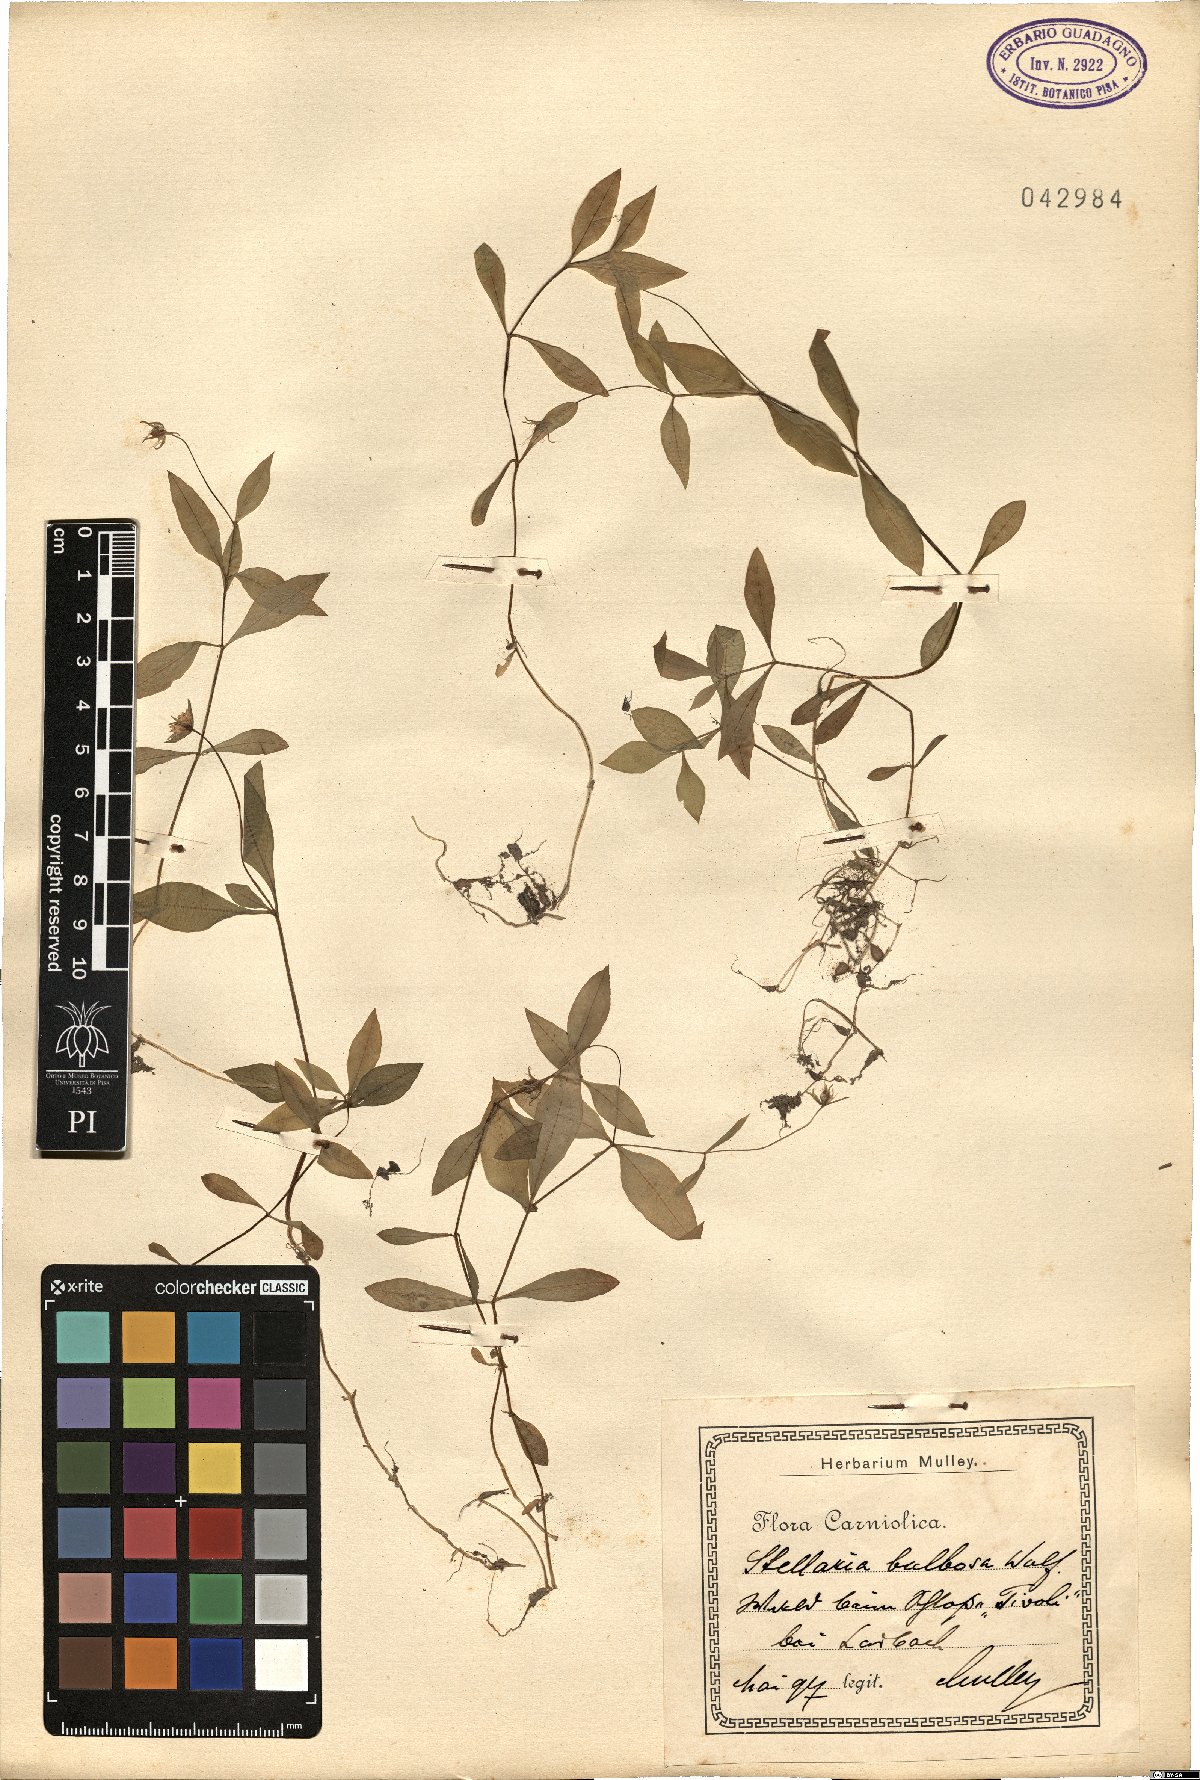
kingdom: Plantae
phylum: Tracheophyta
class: Magnoliopsida
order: Caryophyllales
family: Caryophyllaceae
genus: Pseudostellaria
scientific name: Pseudostellaria europaea
